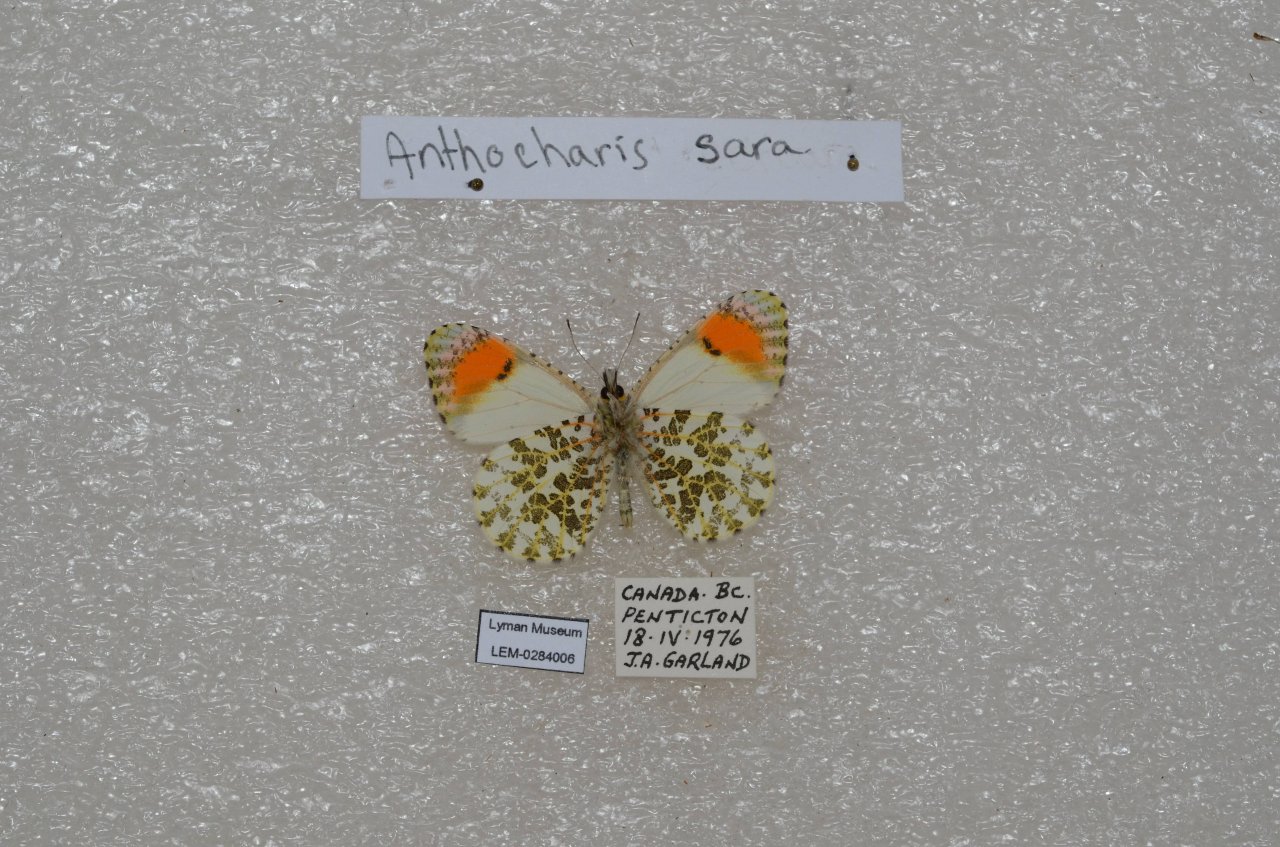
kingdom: Animalia
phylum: Arthropoda
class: Insecta
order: Lepidoptera
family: Pieridae
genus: Anthocharis
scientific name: Anthocharis sara
